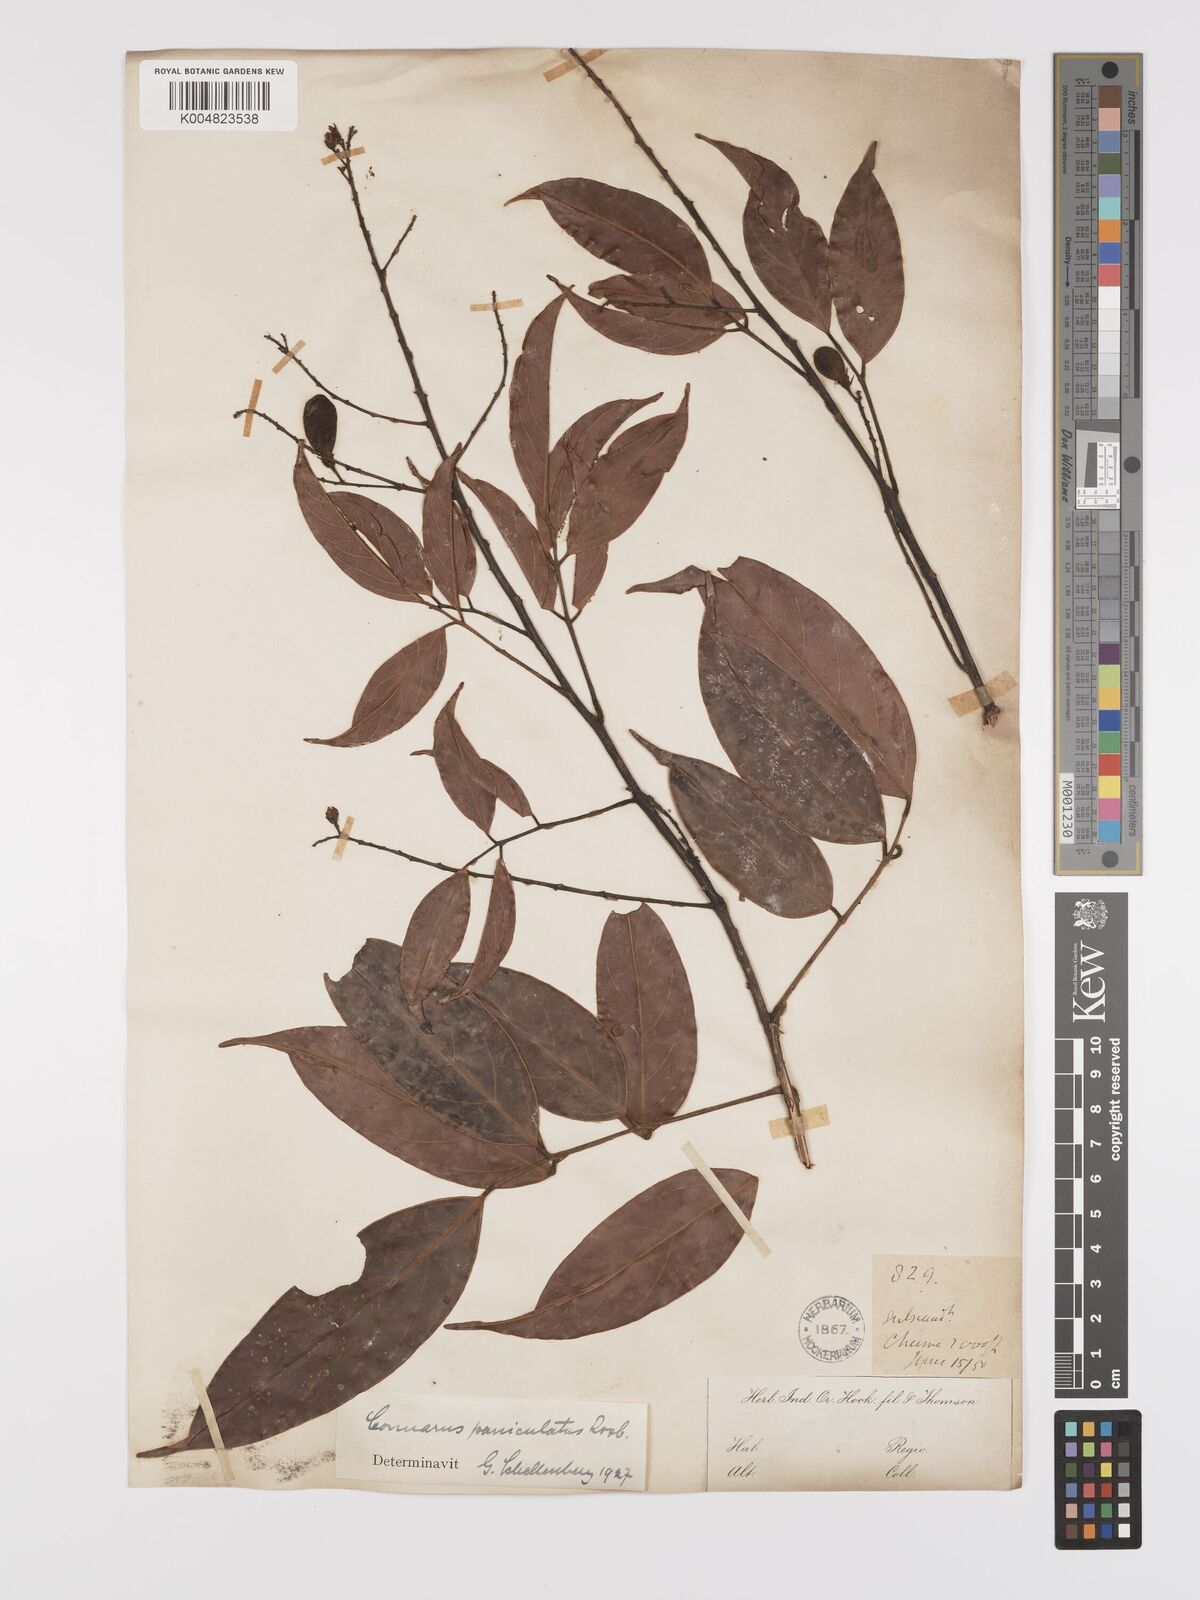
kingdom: Plantae
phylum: Tracheophyta
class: Magnoliopsida
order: Oxalidales
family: Connaraceae
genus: Connarus
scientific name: Connarus paniculatus
